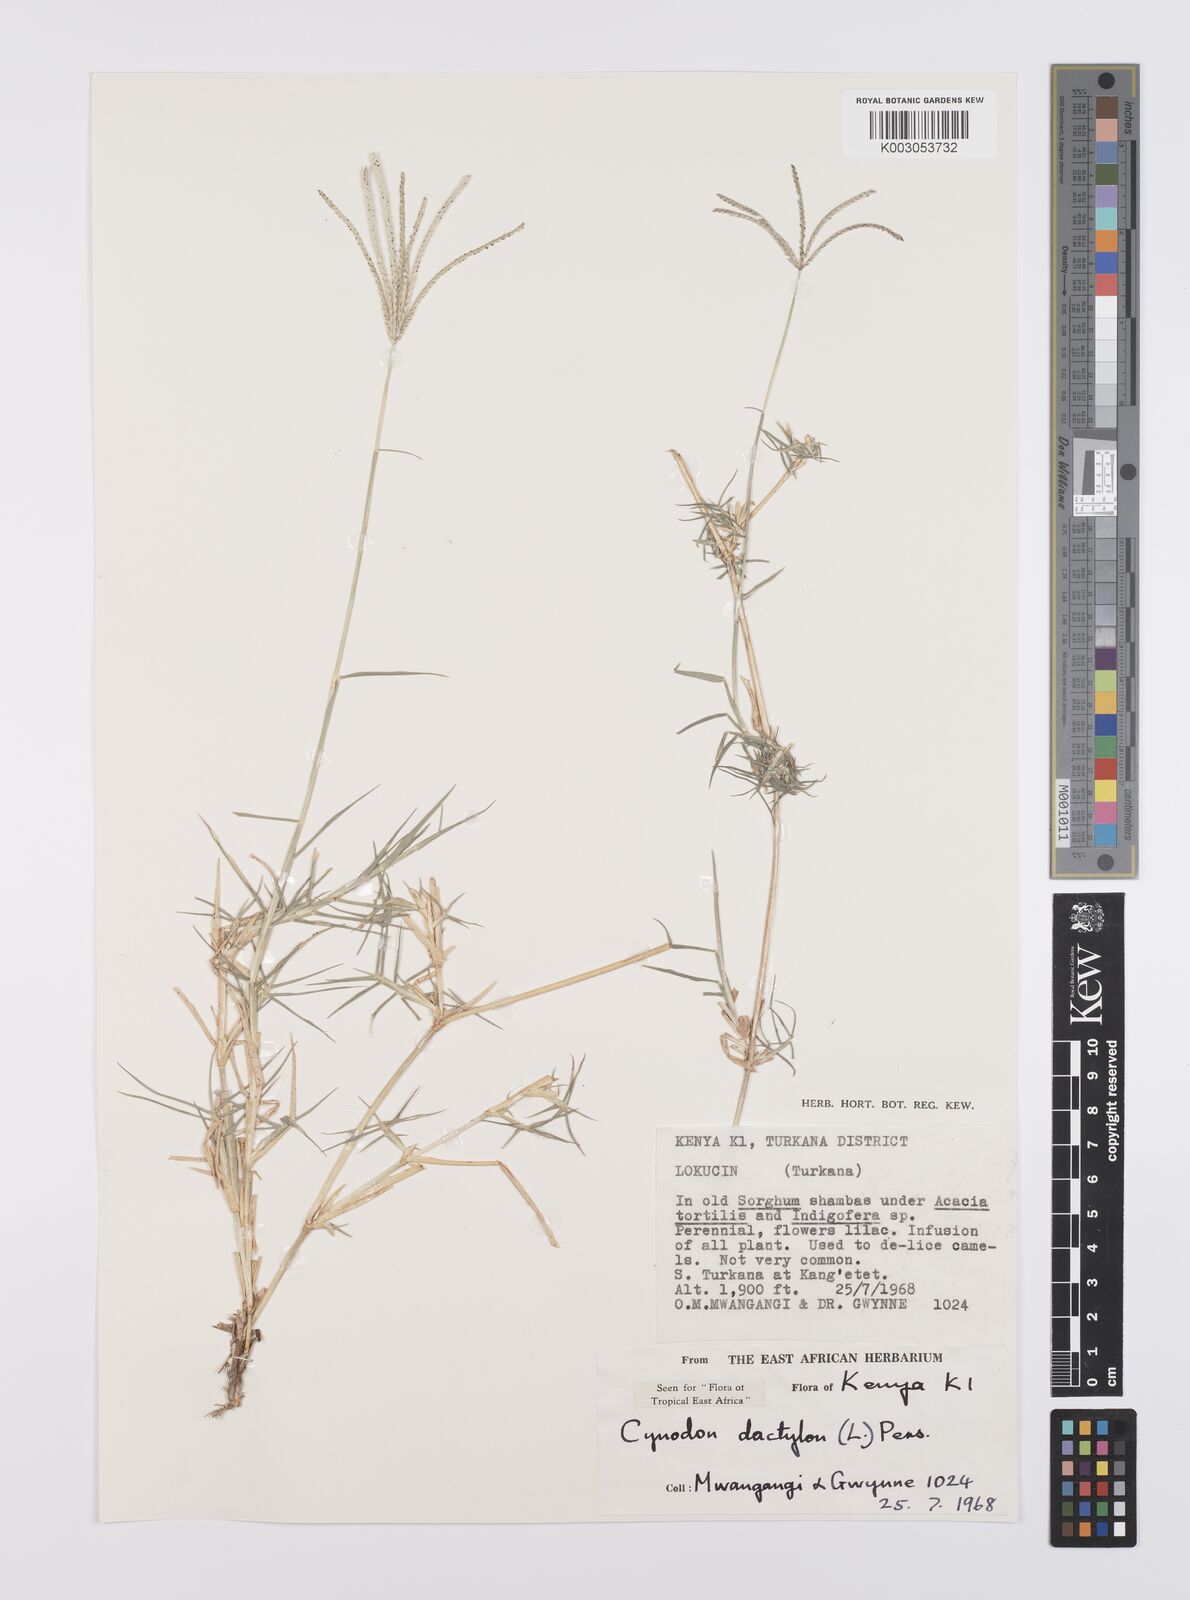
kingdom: Plantae
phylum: Tracheophyta
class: Liliopsida
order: Poales
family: Poaceae
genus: Cynodon
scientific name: Cynodon dactylon
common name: Bermuda grass
